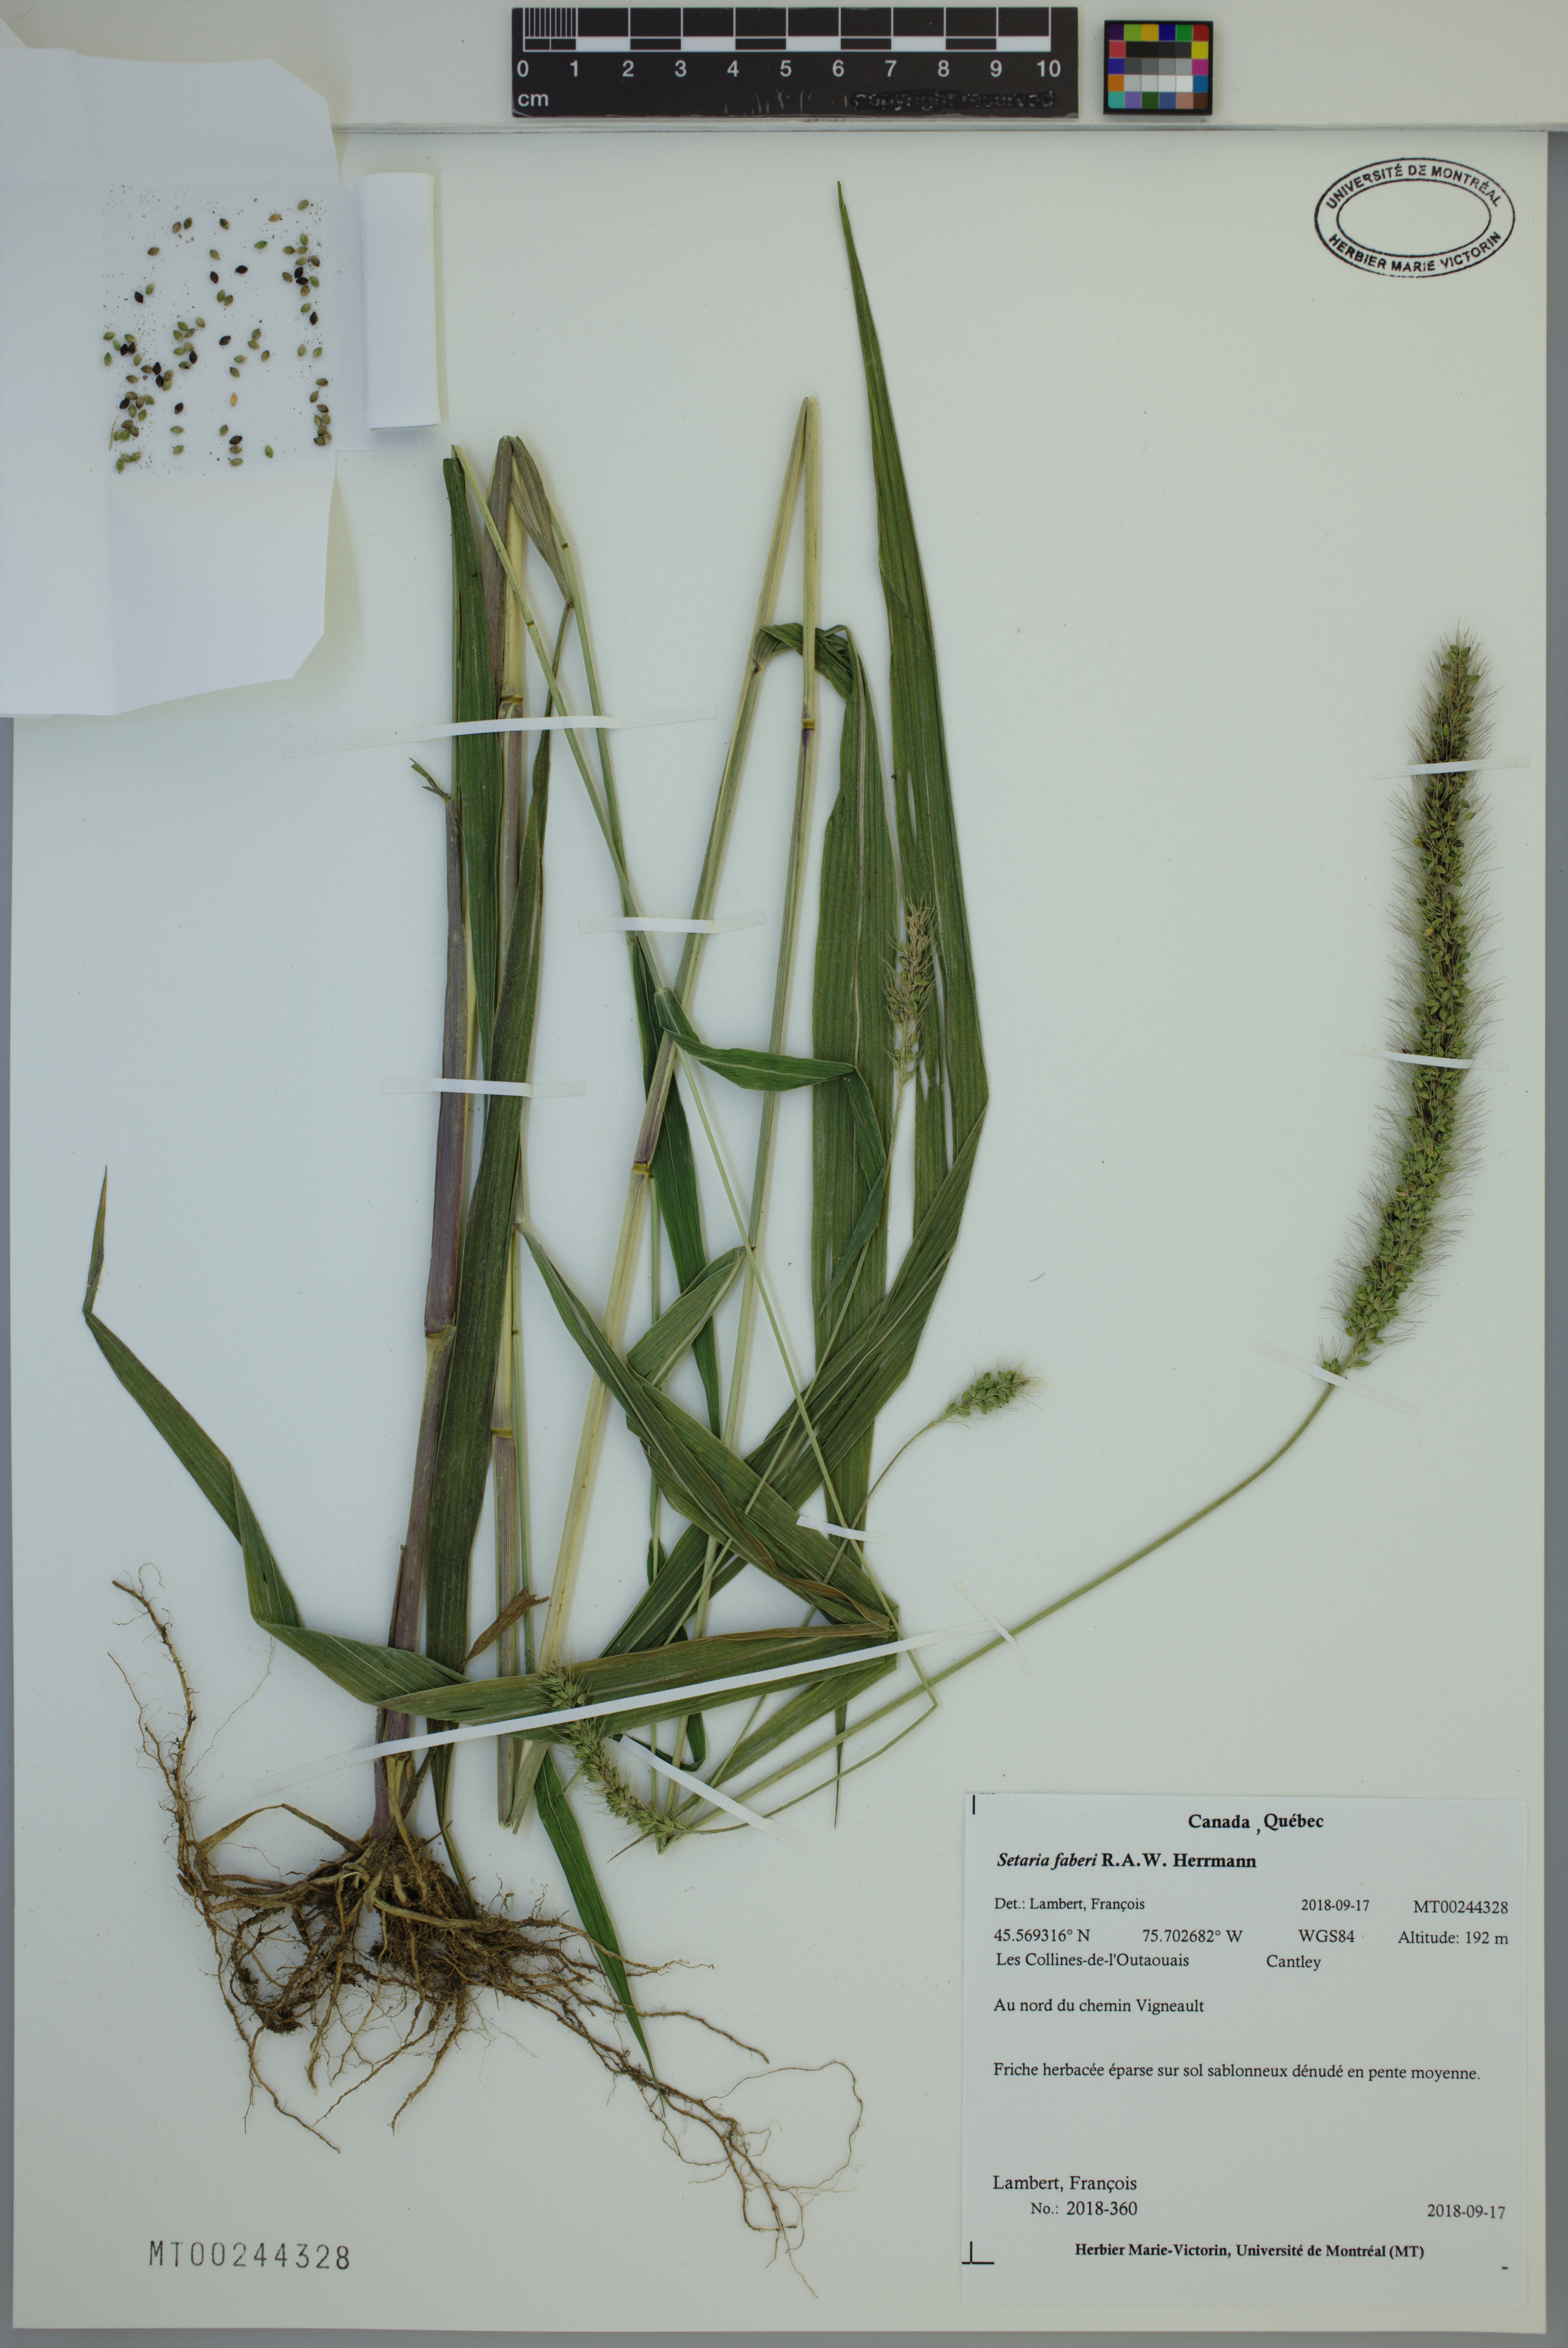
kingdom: Plantae
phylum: Tracheophyta
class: Liliopsida
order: Poales
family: Poaceae
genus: Setaria
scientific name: Setaria faberi
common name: Nodding bristle-grass
